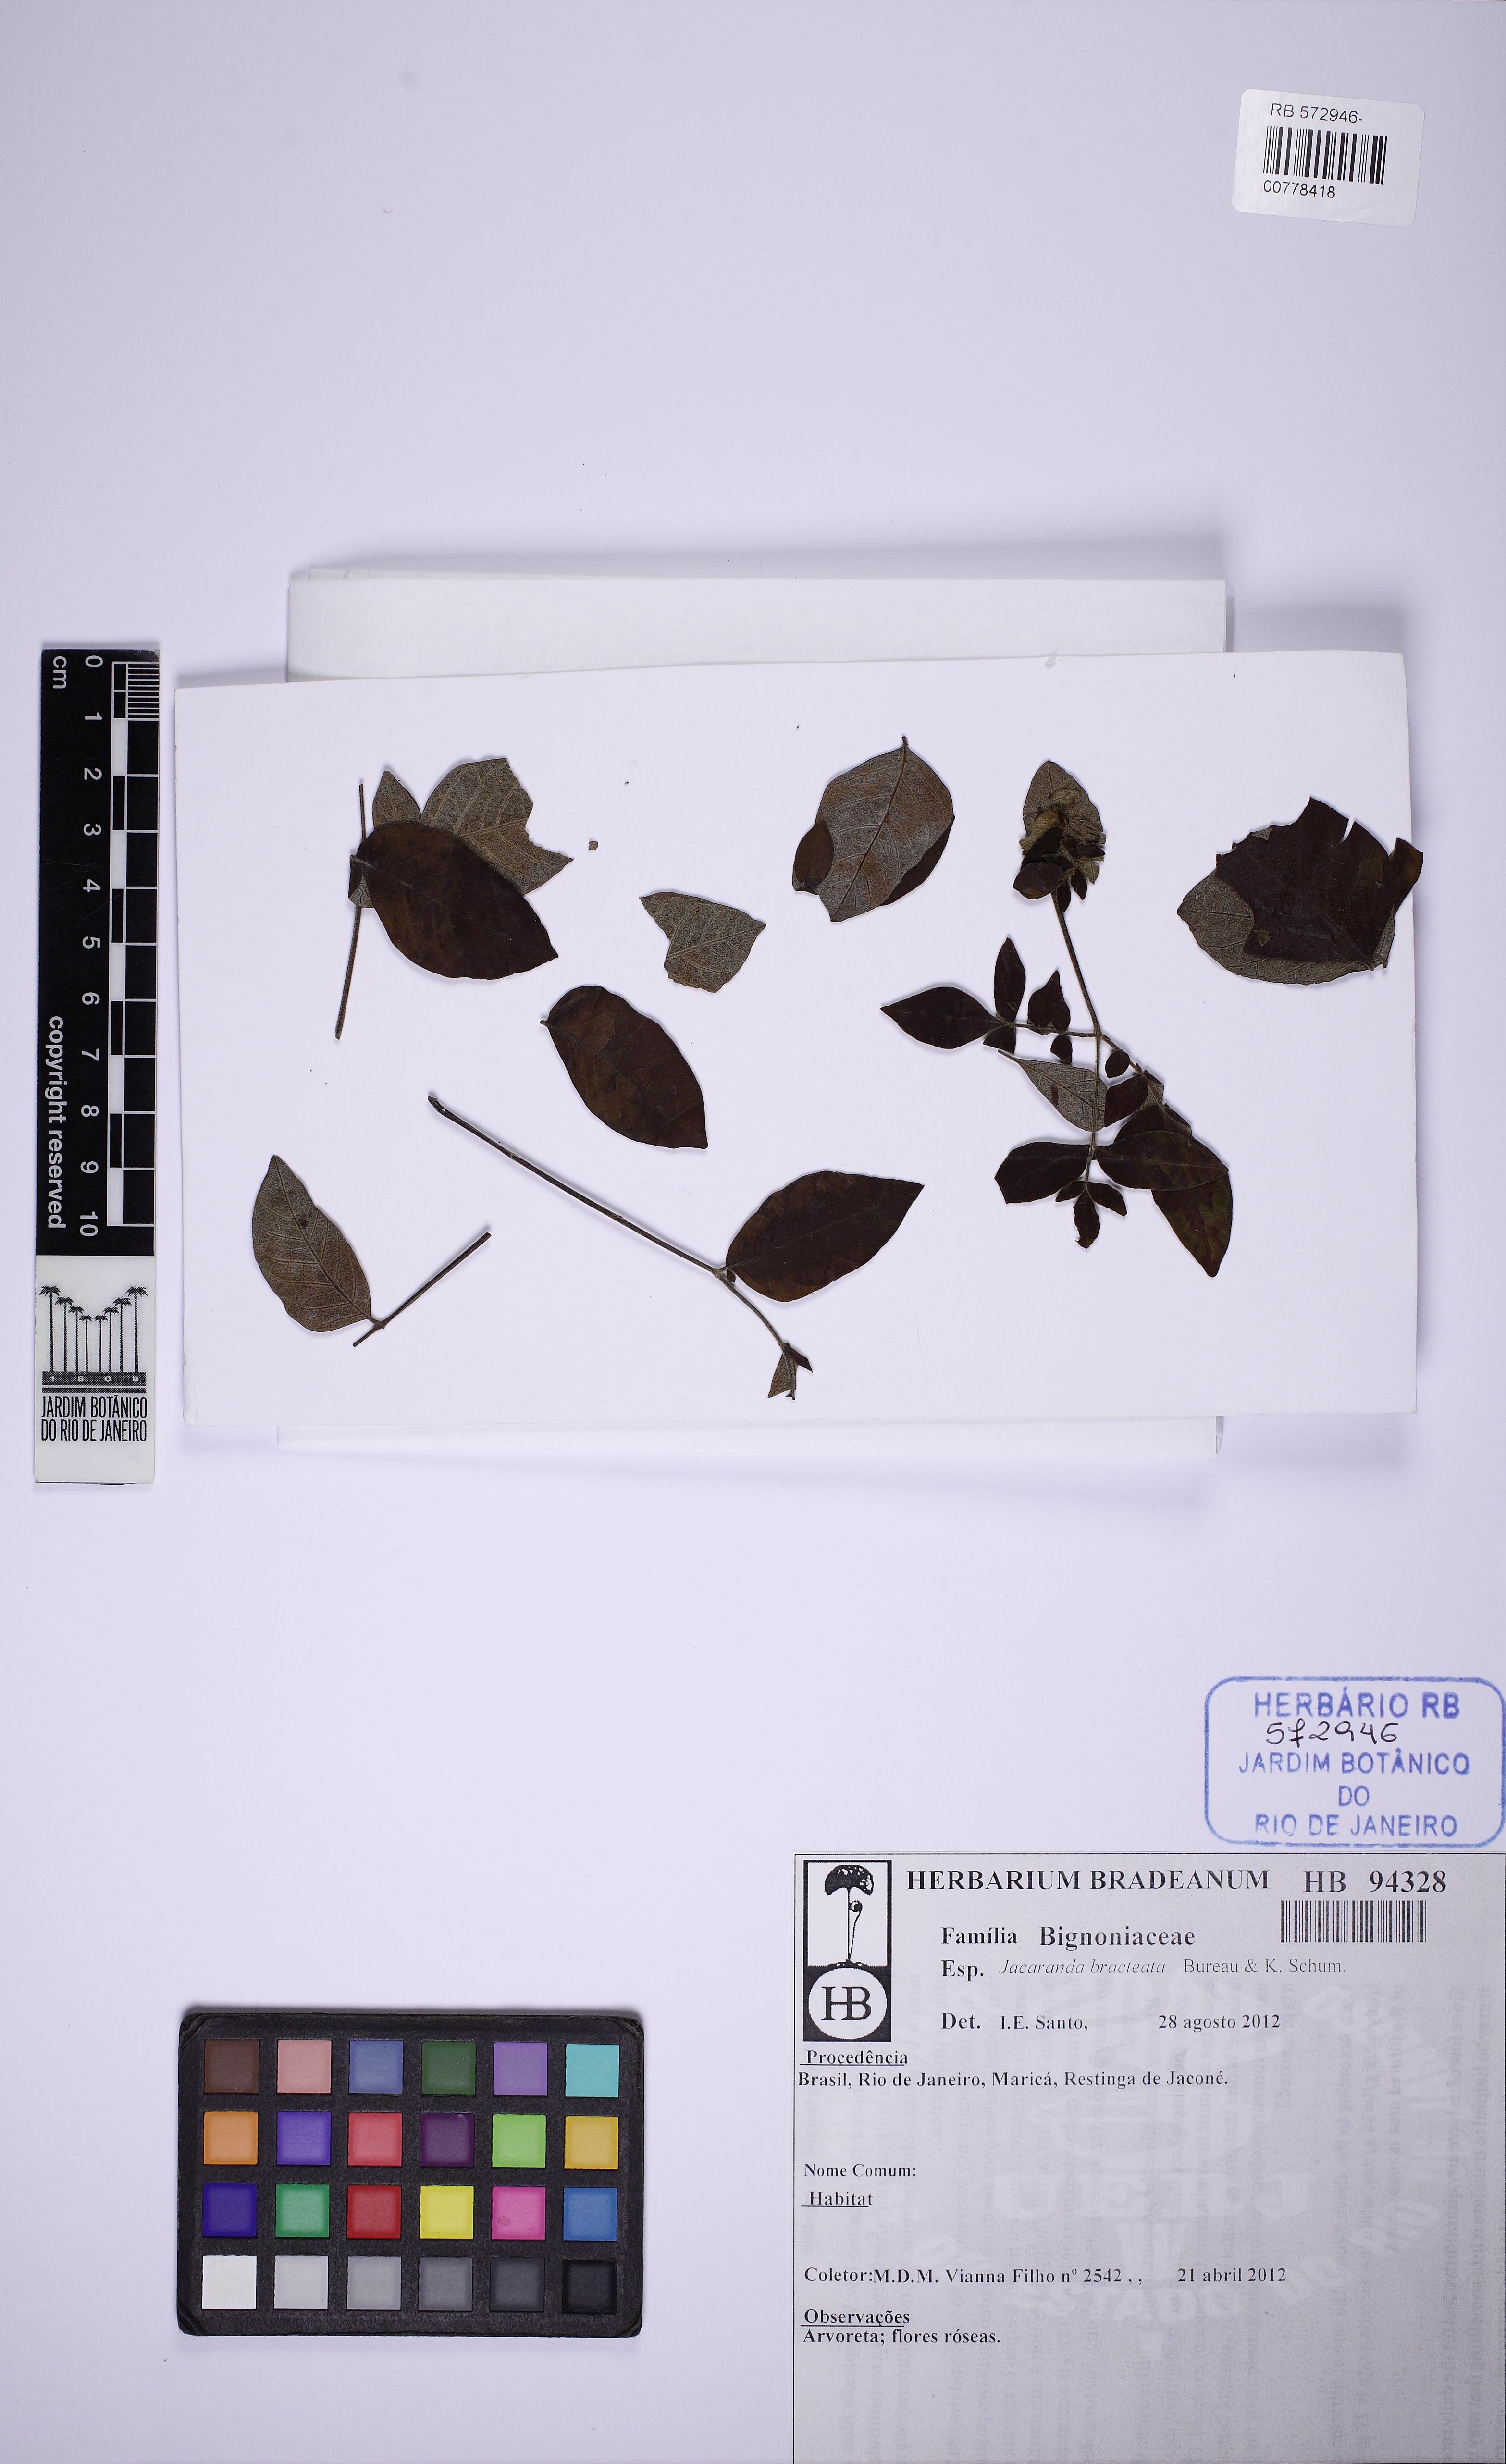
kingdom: Plantae
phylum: Tracheophyta
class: Magnoliopsida
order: Lamiales
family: Bignoniaceae
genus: Jacaranda
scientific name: Jacaranda bracteata
